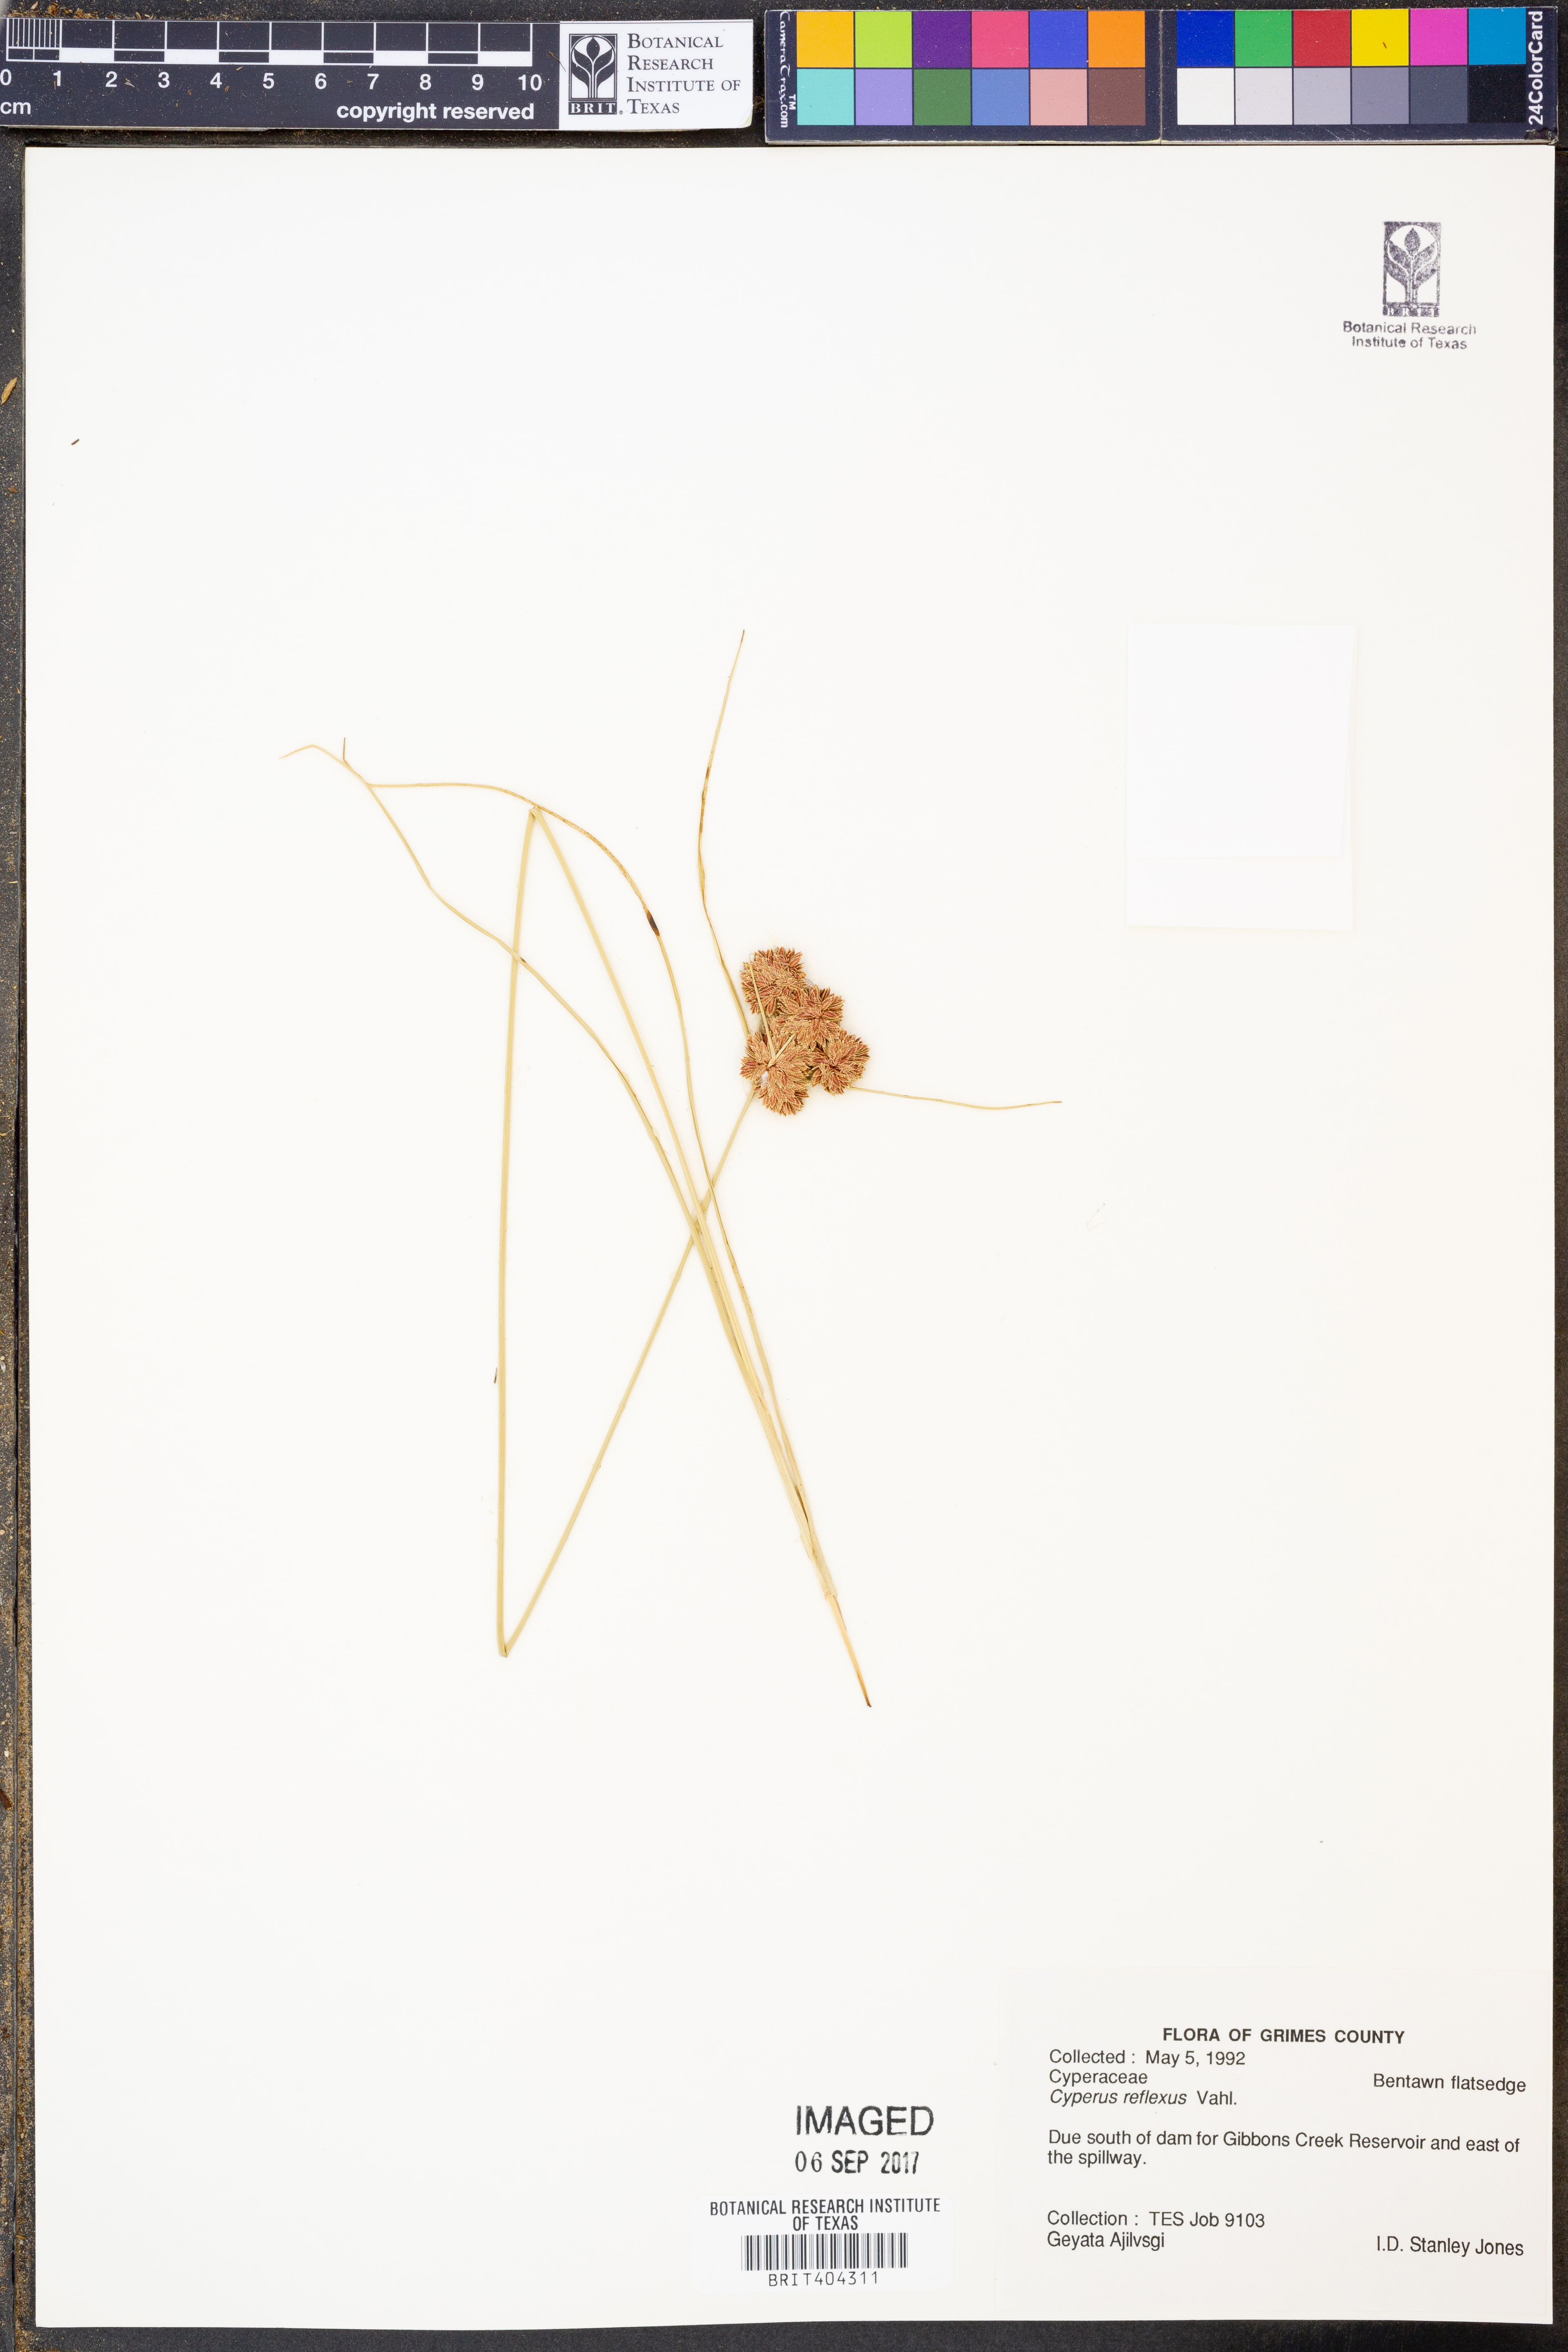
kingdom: Plantae
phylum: Tracheophyta
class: Liliopsida
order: Poales
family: Cyperaceae
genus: Cyperus
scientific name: Cyperus reflexus
